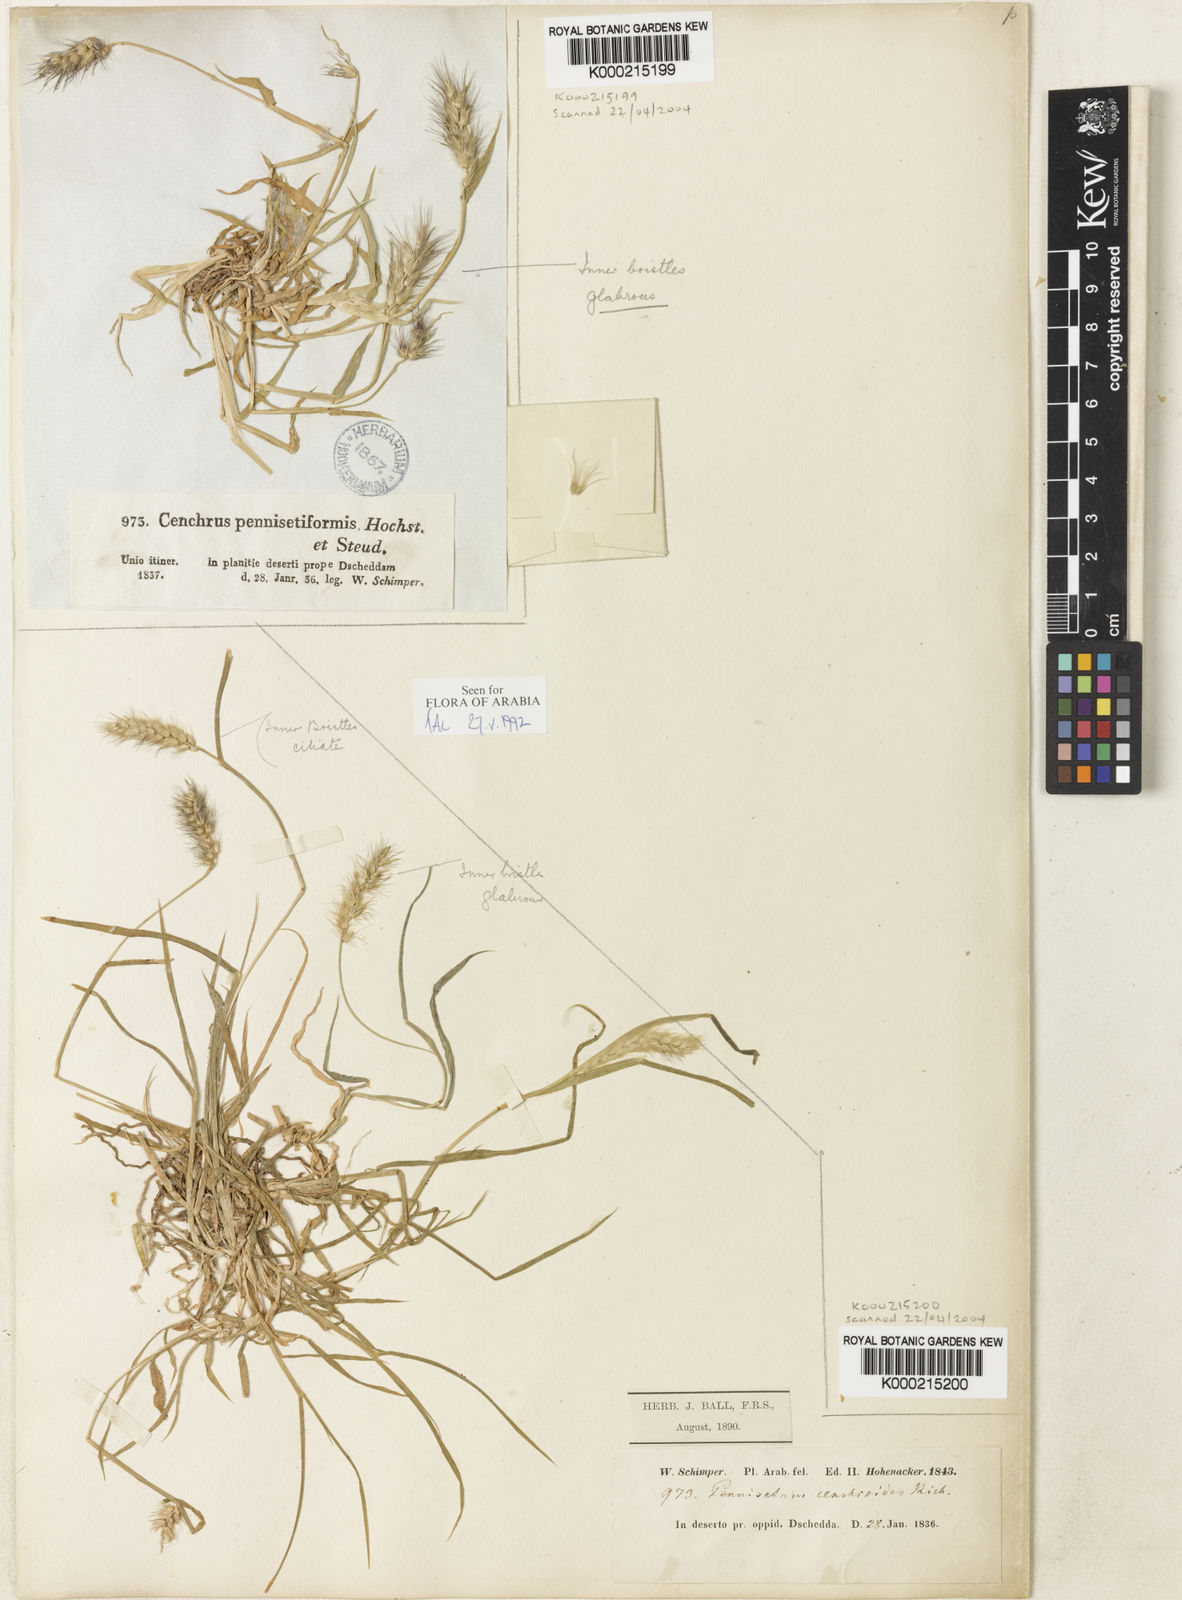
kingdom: Plantae
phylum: Tracheophyta
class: Liliopsida
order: Poales
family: Poaceae
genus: Cenchrus
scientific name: Cenchrus pennisetiformis
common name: Cloncurry
